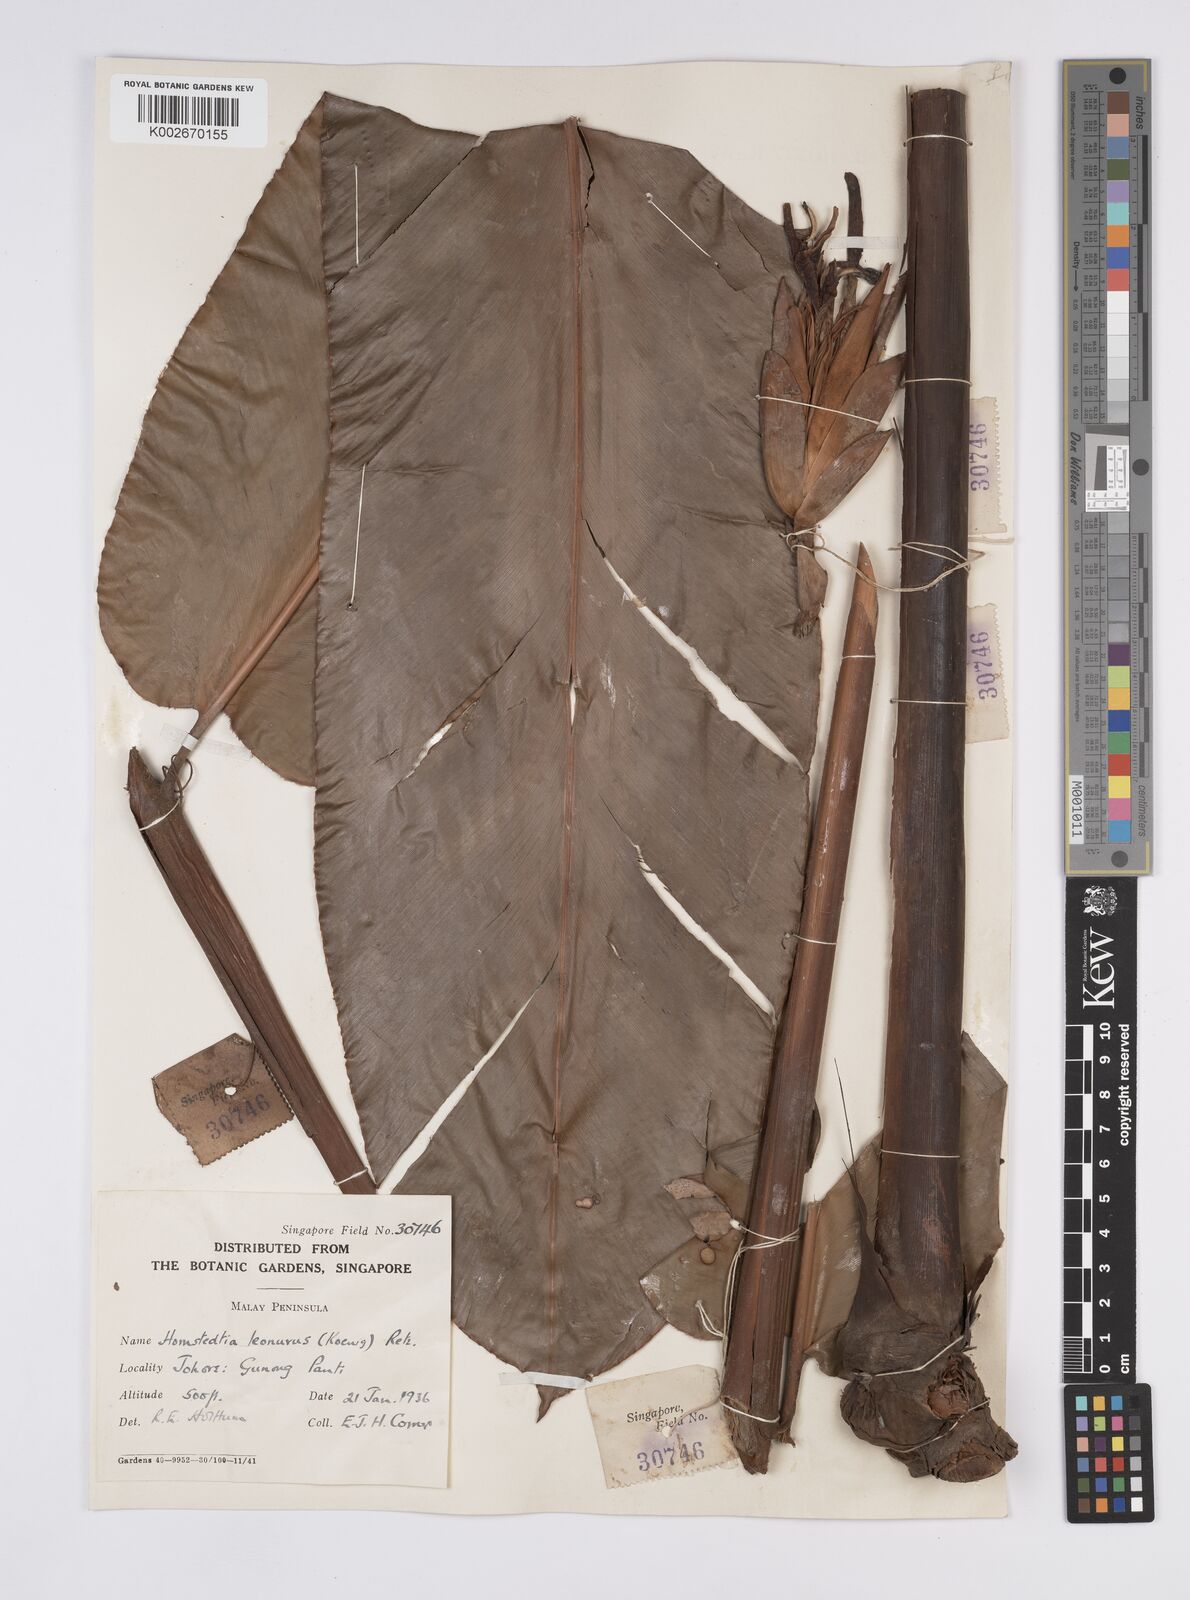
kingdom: Plantae
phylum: Tracheophyta
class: Liliopsida
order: Zingiberales
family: Zingiberaceae
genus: Hornstedtia
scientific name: Hornstedtia leonurus
